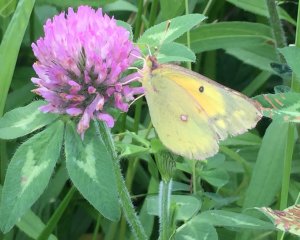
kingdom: Animalia
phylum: Arthropoda
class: Insecta
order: Lepidoptera
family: Pieridae
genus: Colias
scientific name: Colias eurytheme
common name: Orange Sulphur
